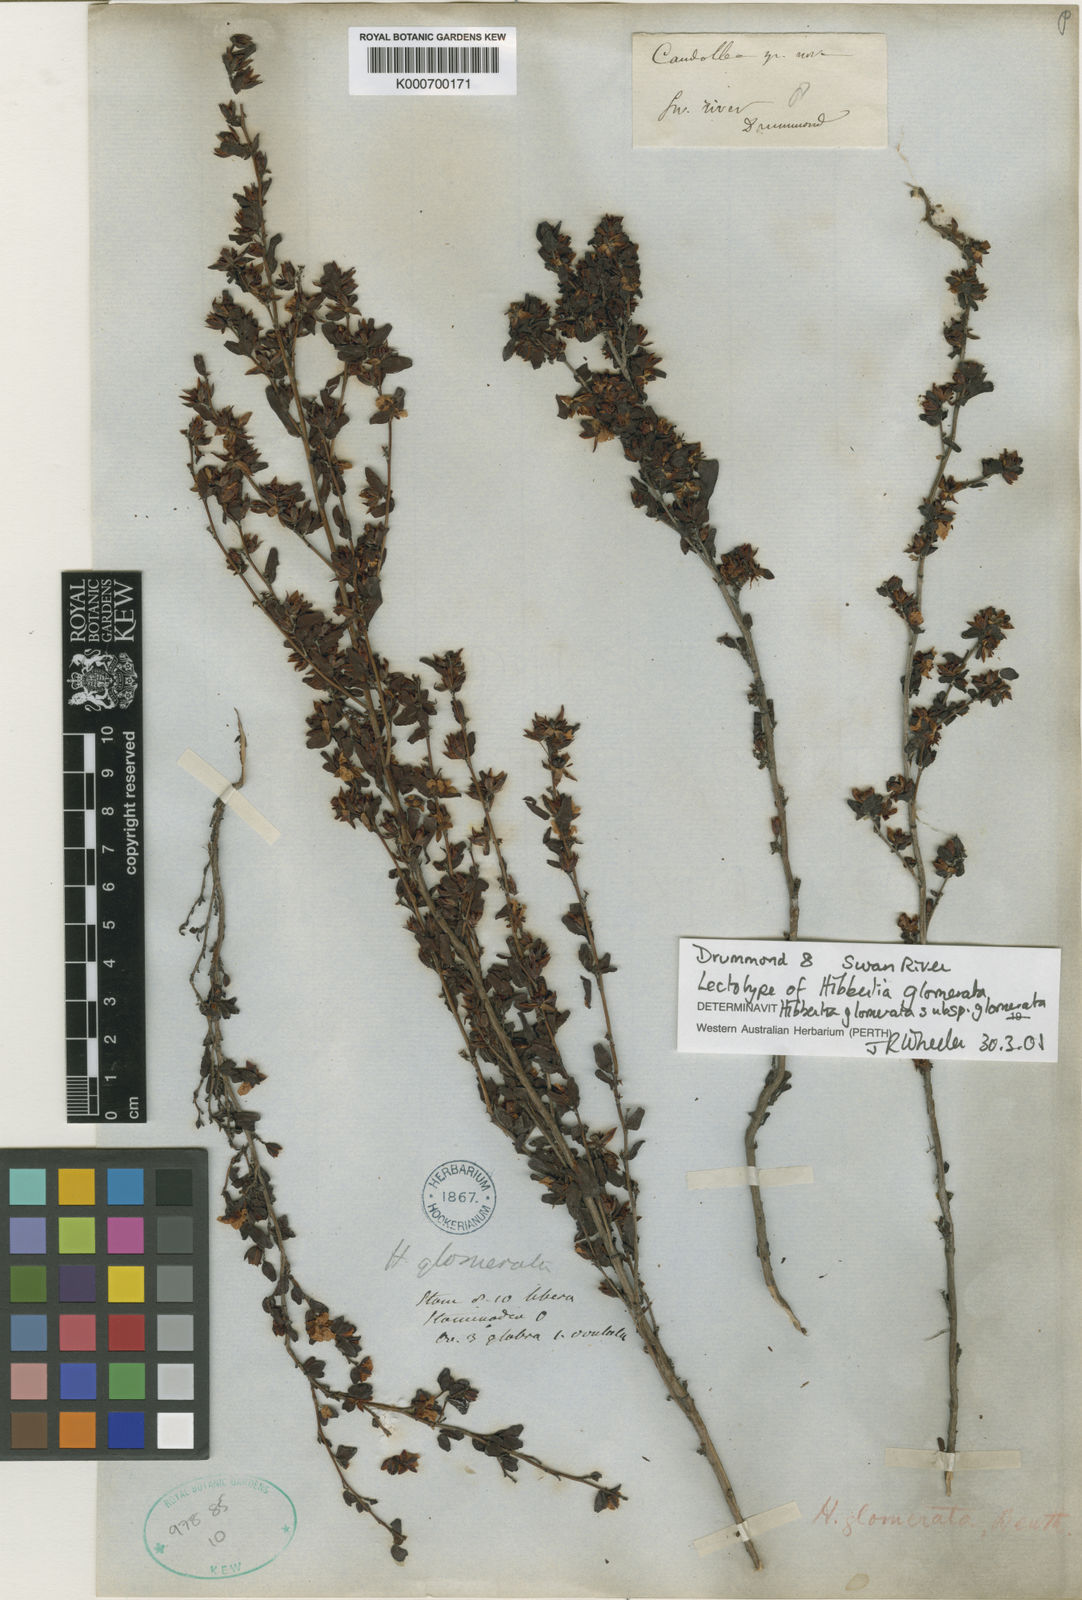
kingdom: Plantae
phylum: Tracheophyta
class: Magnoliopsida
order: Dilleniales
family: Dilleniaceae
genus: Hibbertia
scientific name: Hibbertia glomerata
